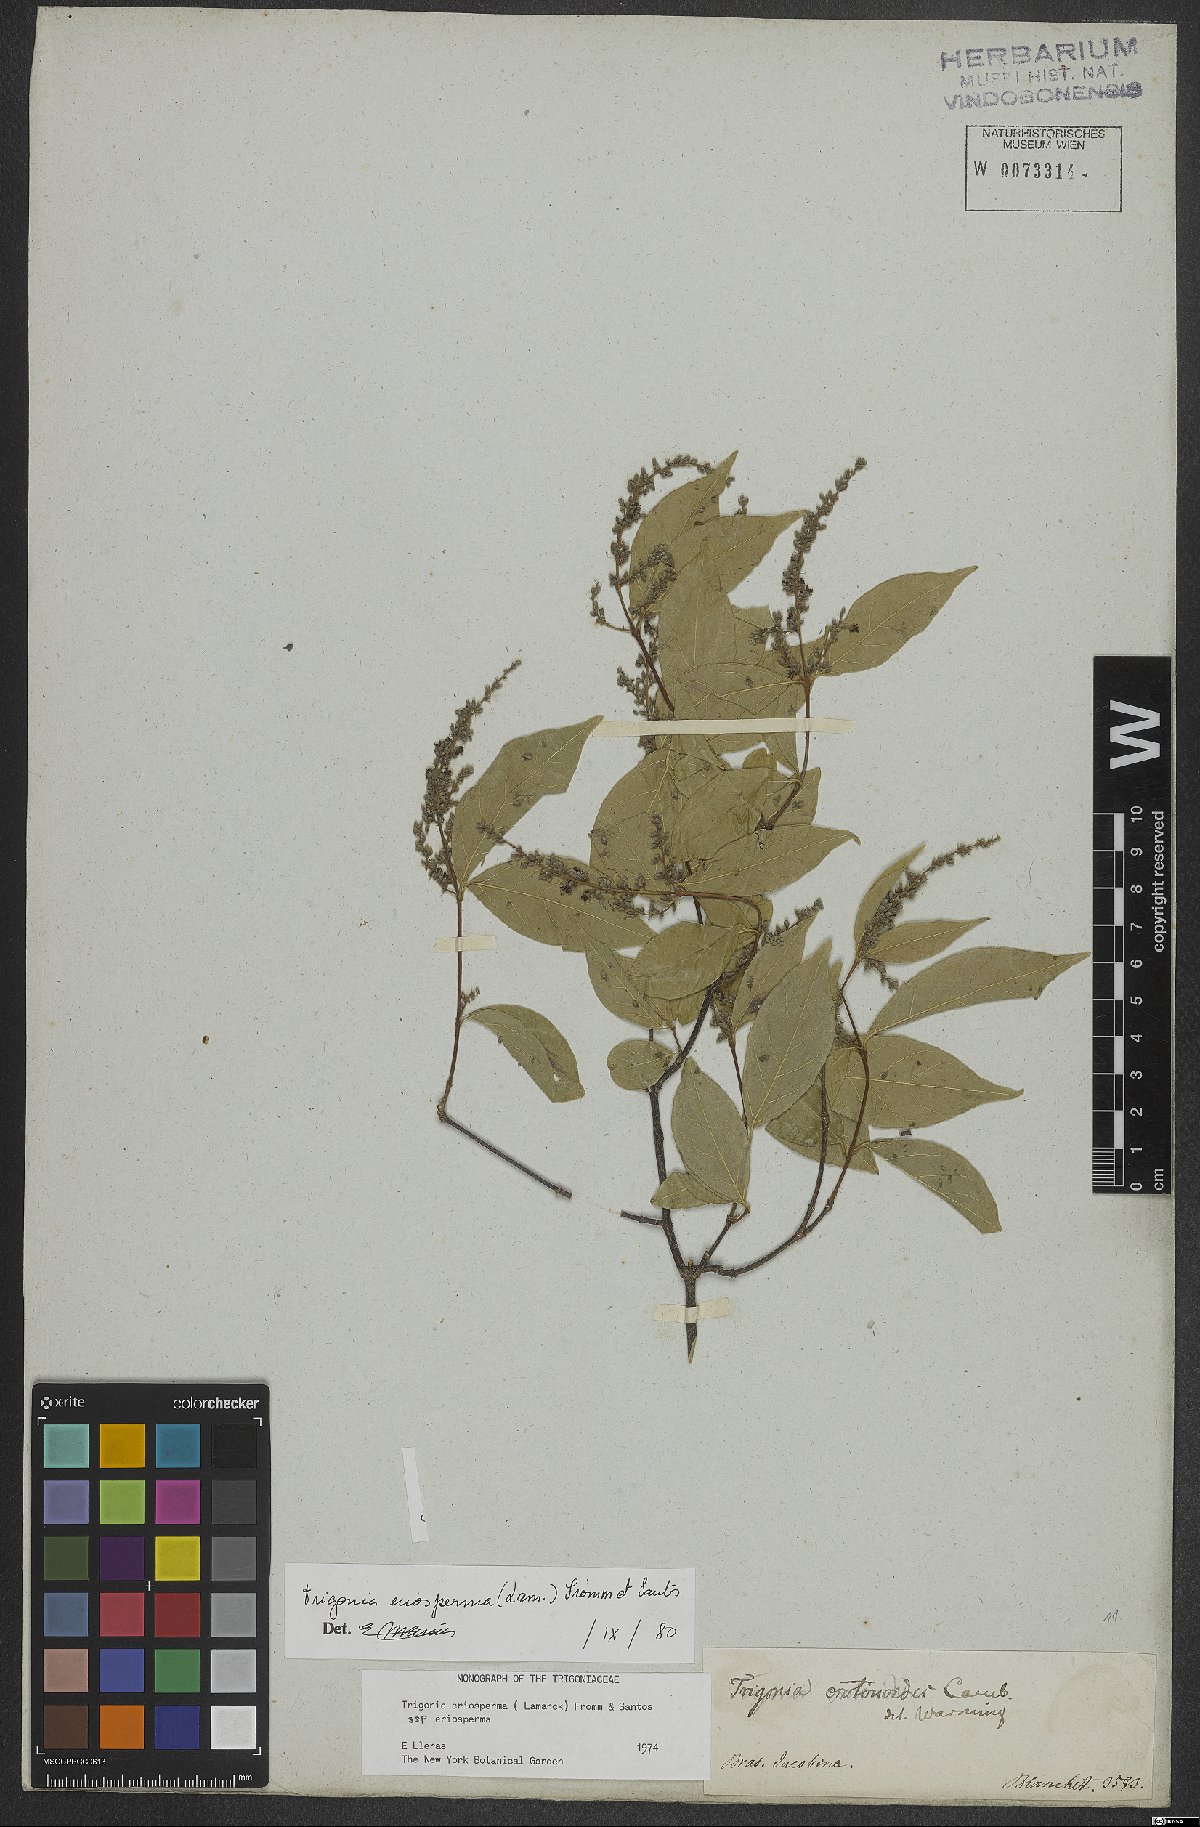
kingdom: Plantae
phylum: Tracheophyta
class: Magnoliopsida
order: Malpighiales
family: Trigoniaceae
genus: Trigonia
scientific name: Trigonia eriosperma
